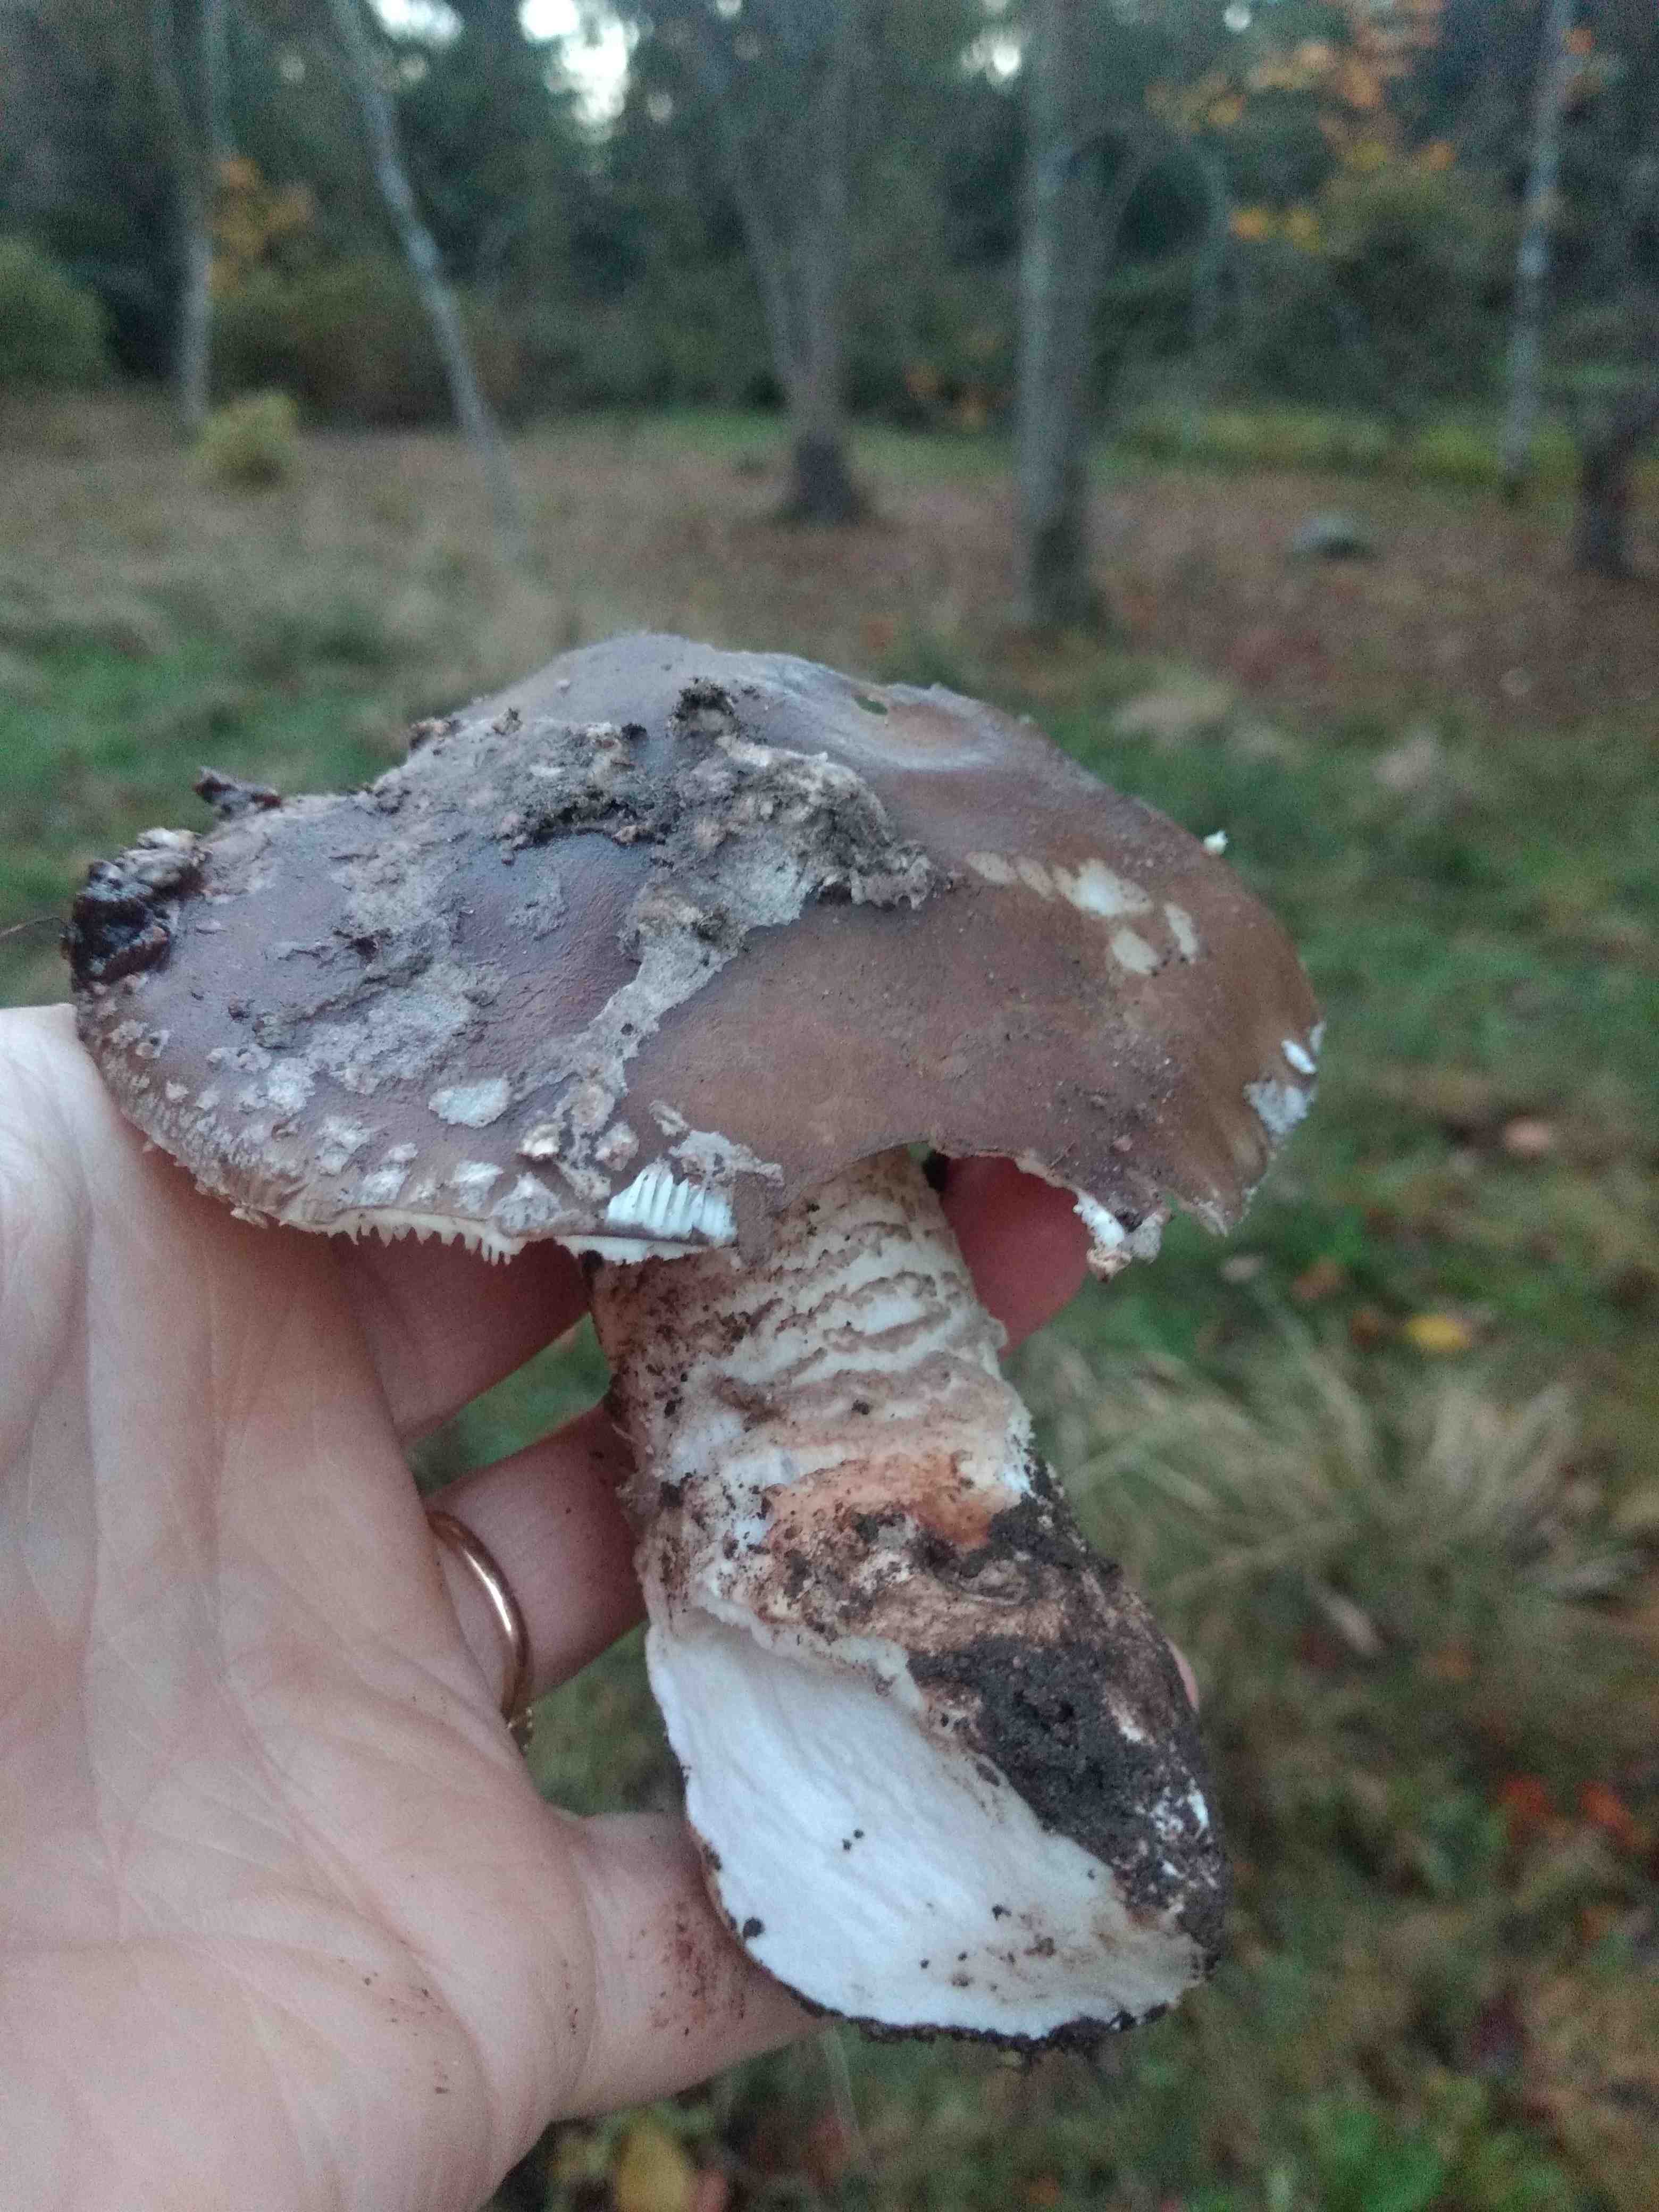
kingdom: Fungi
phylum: Basidiomycota
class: Agaricomycetes
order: Agaricales
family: Amanitaceae
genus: Amanita
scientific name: Amanita
